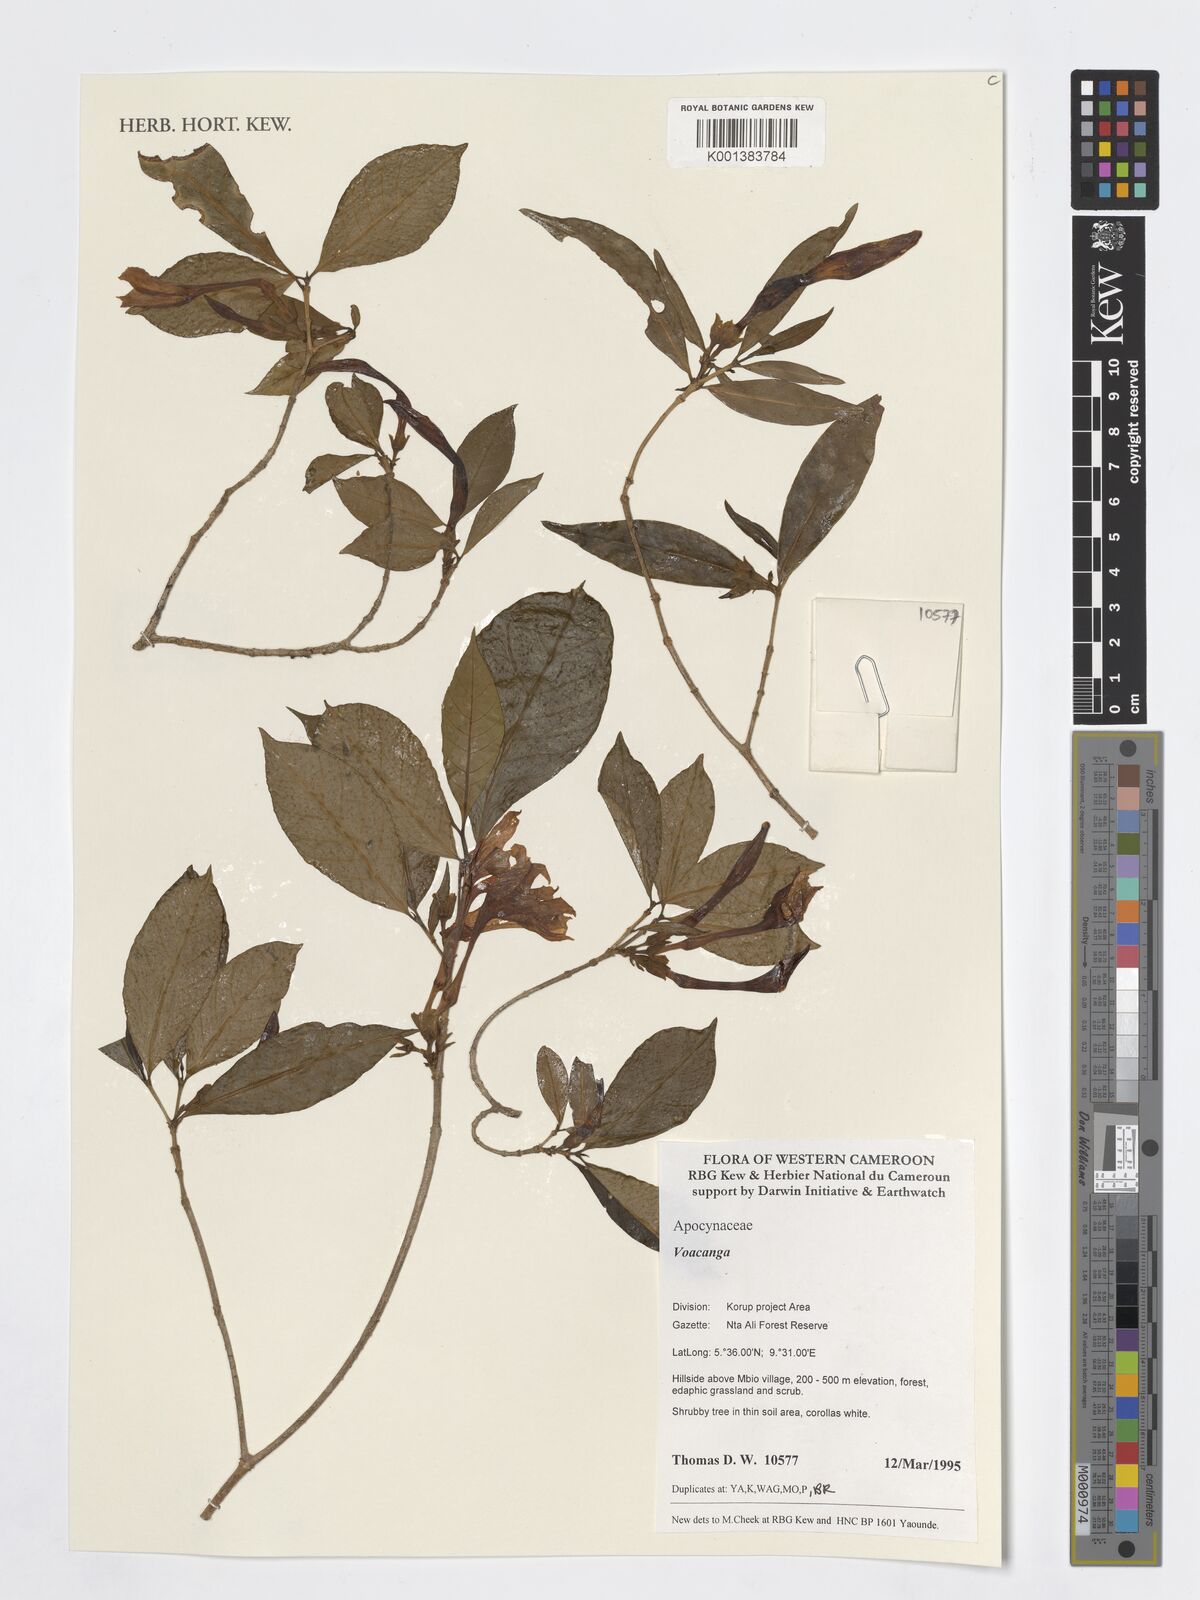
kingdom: Plantae
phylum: Tracheophyta
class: Magnoliopsida
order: Gentianales
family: Apocynaceae
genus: Voacanga
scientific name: Voacanga
